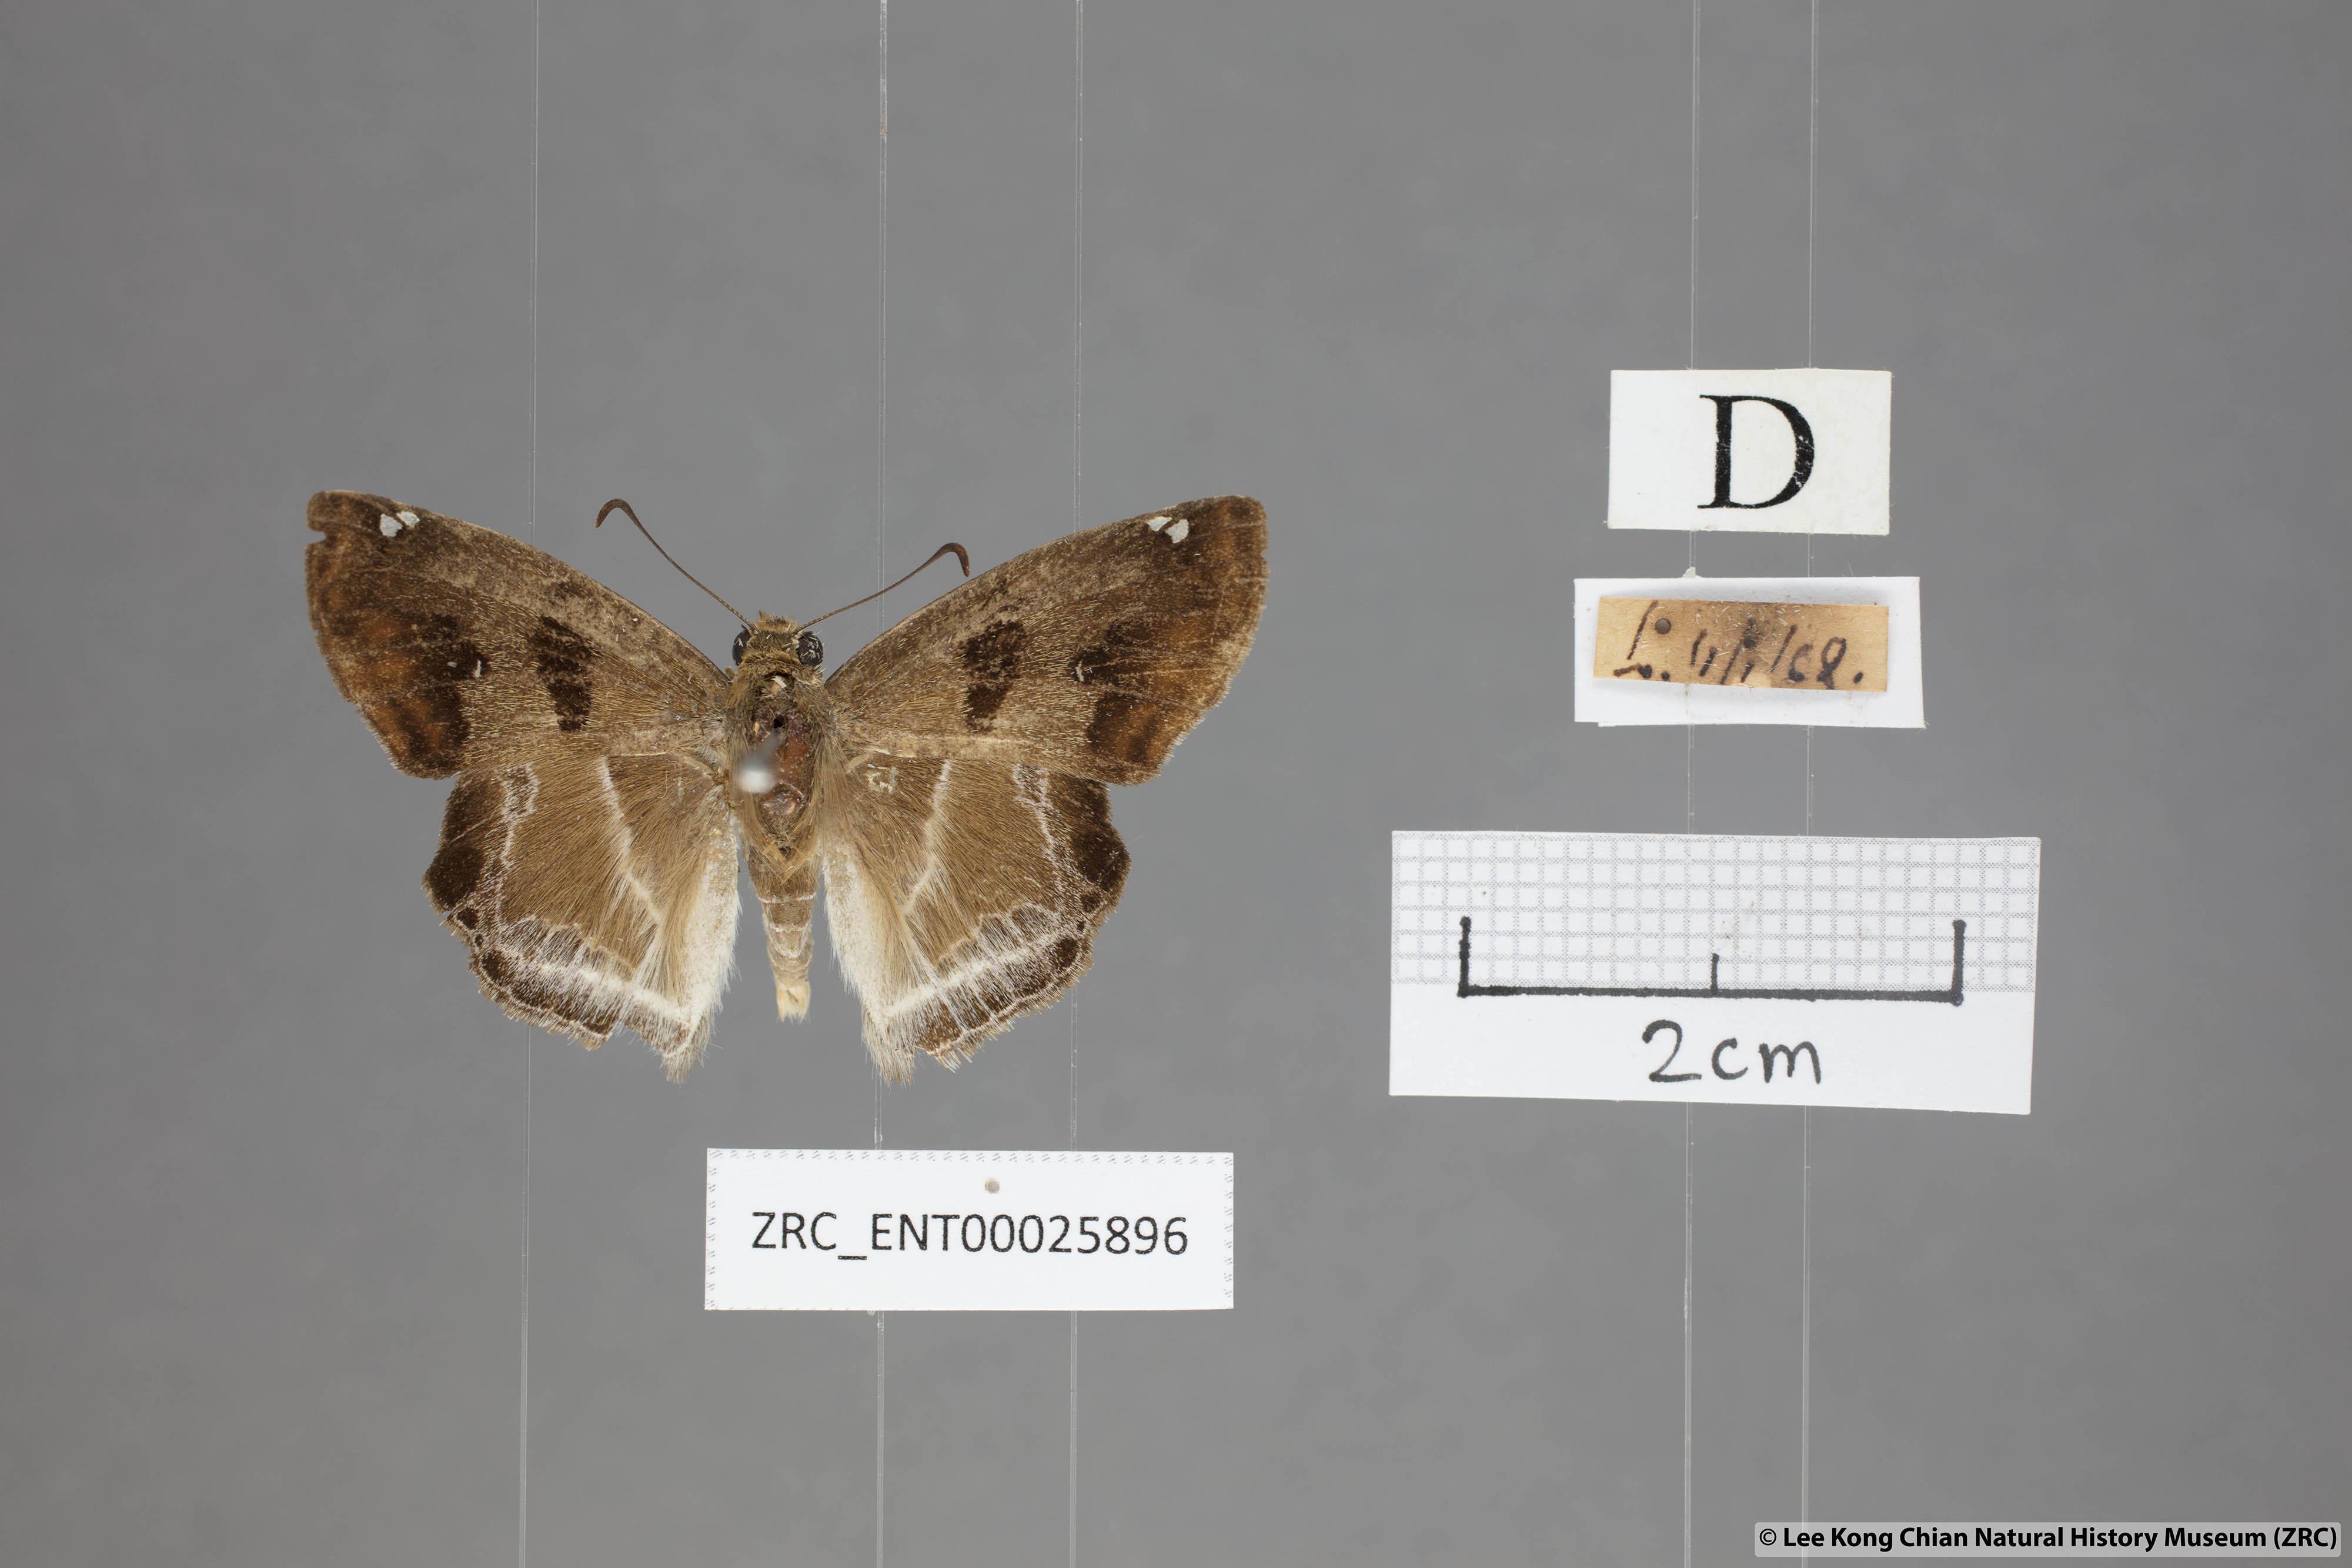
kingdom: Animalia
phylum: Arthropoda
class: Insecta
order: Lepidoptera
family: Hesperiidae
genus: Odontoptilum
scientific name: Odontoptilum angulata
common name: Chestnut banded angle
